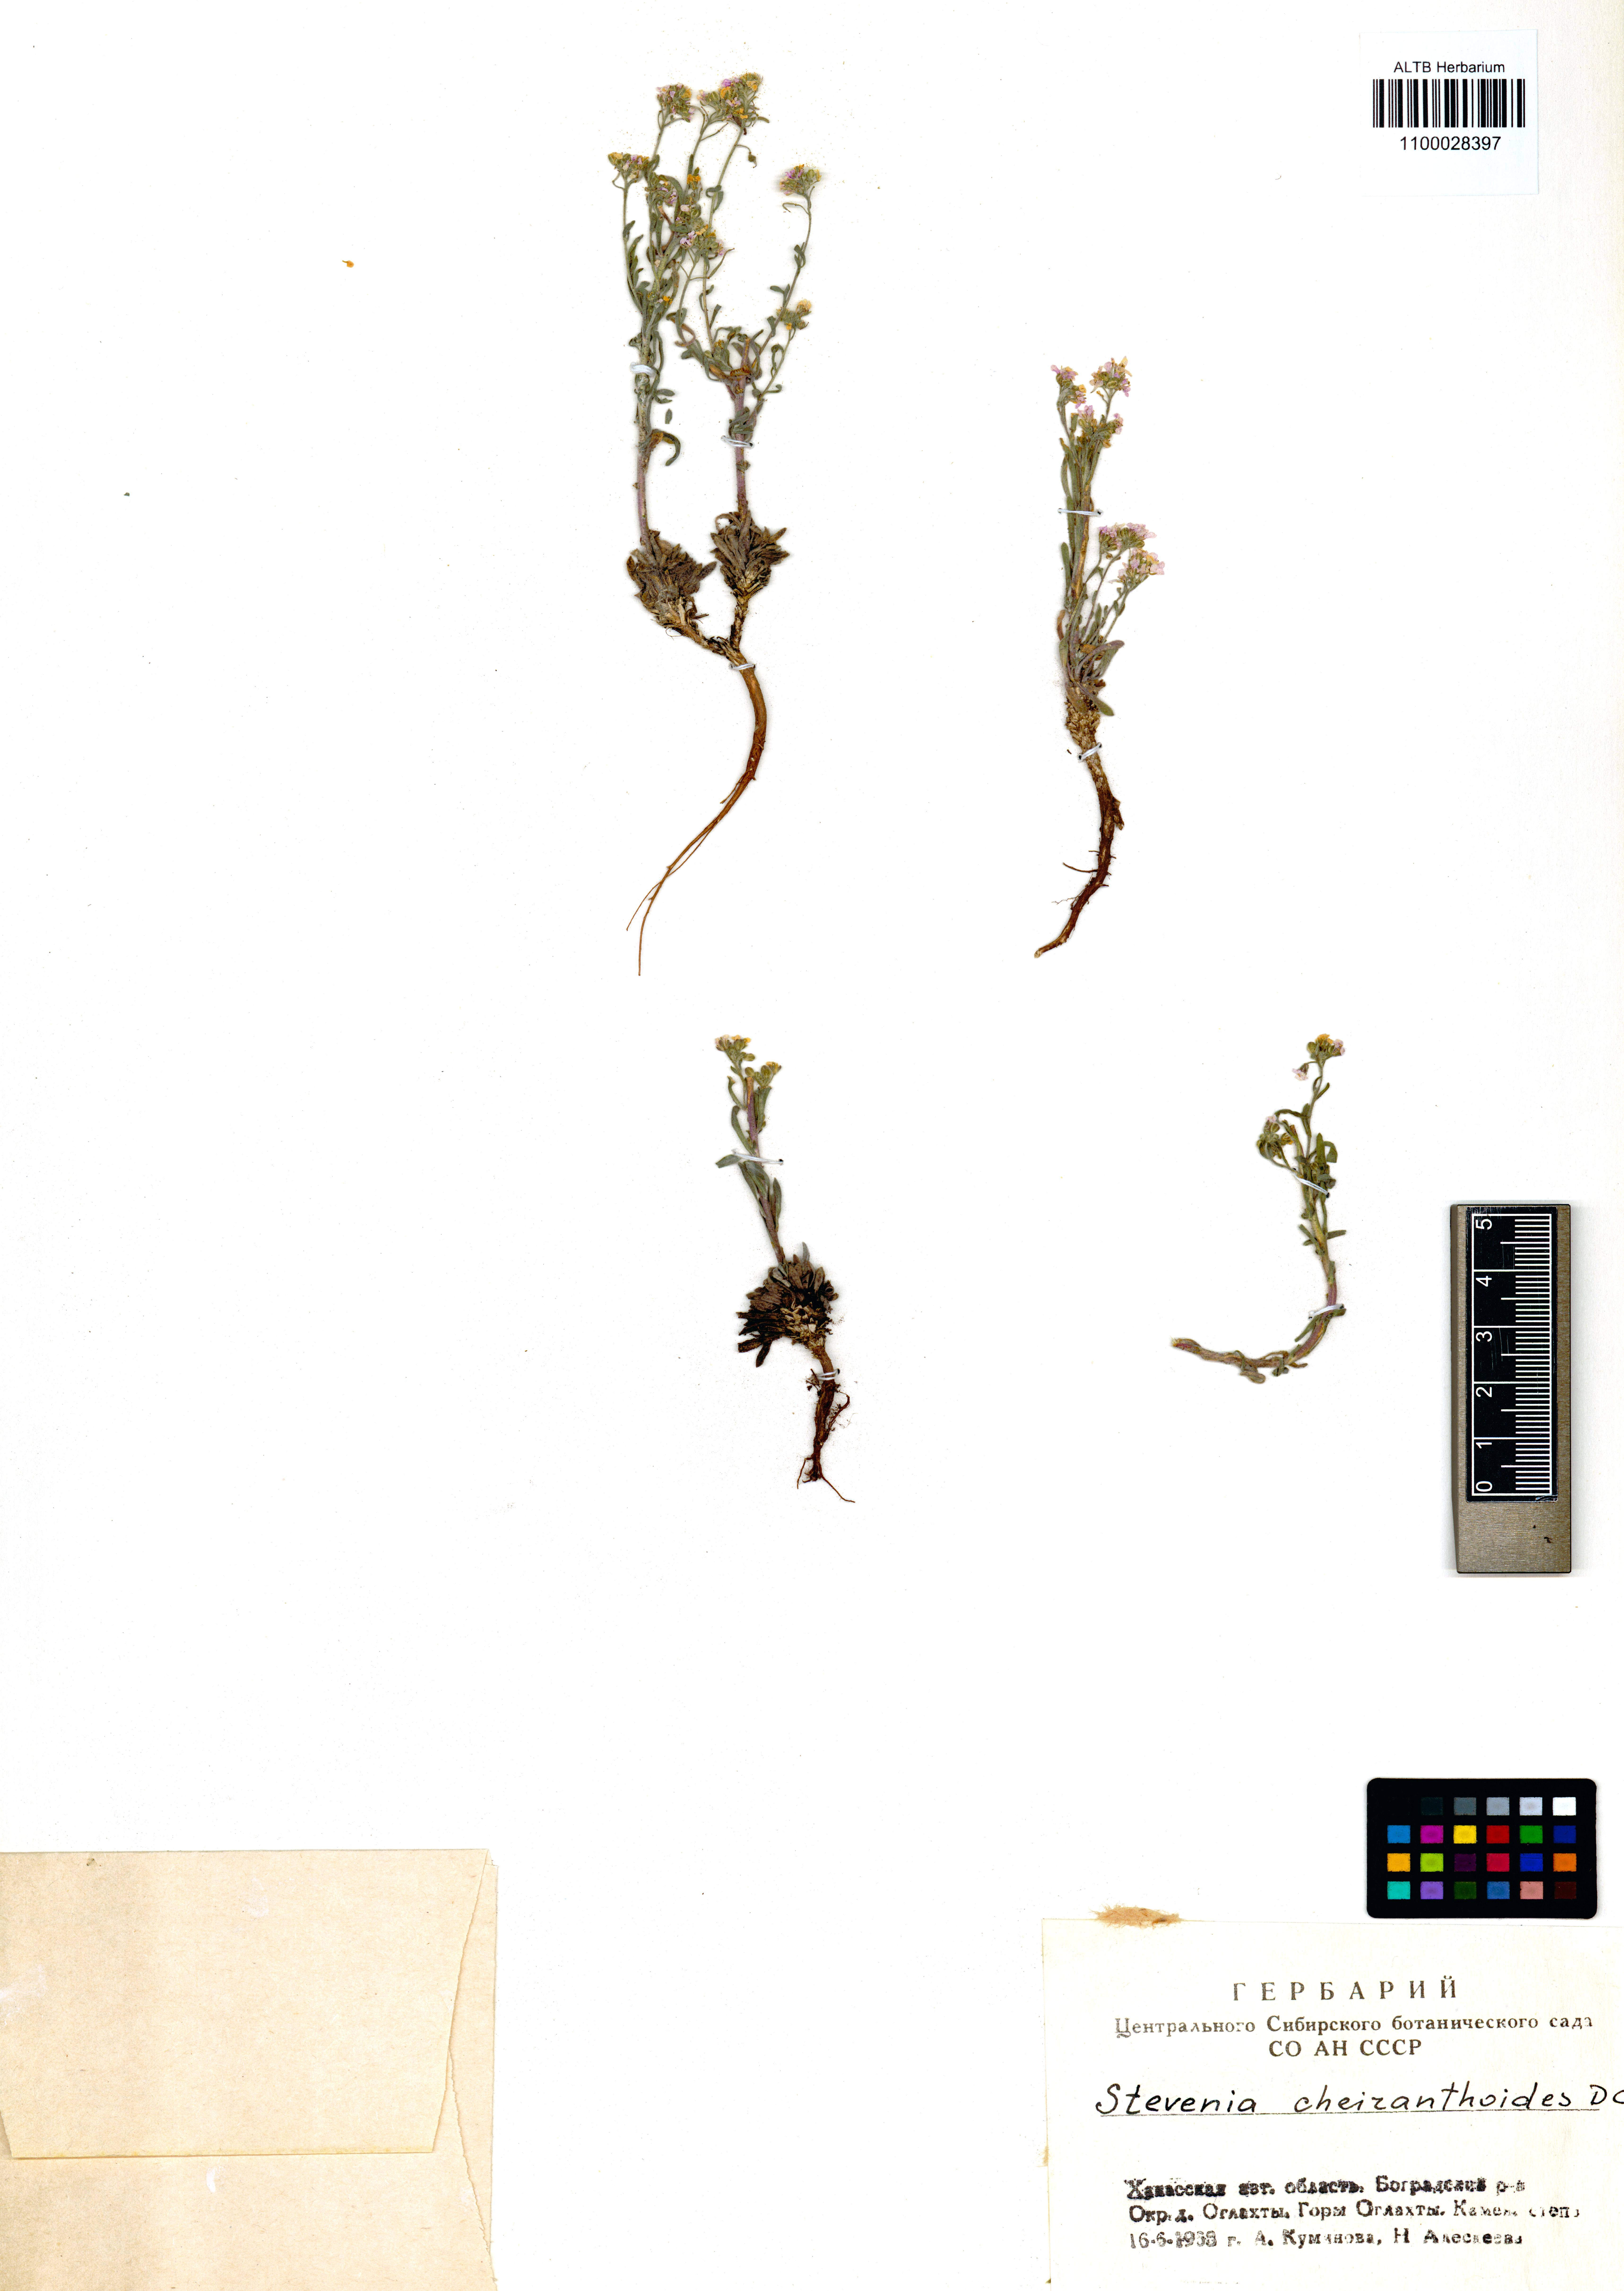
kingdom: Plantae
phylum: Tracheophyta
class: Magnoliopsida
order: Brassicales
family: Brassicaceae
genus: Stevenia
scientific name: Stevenia incarnata
